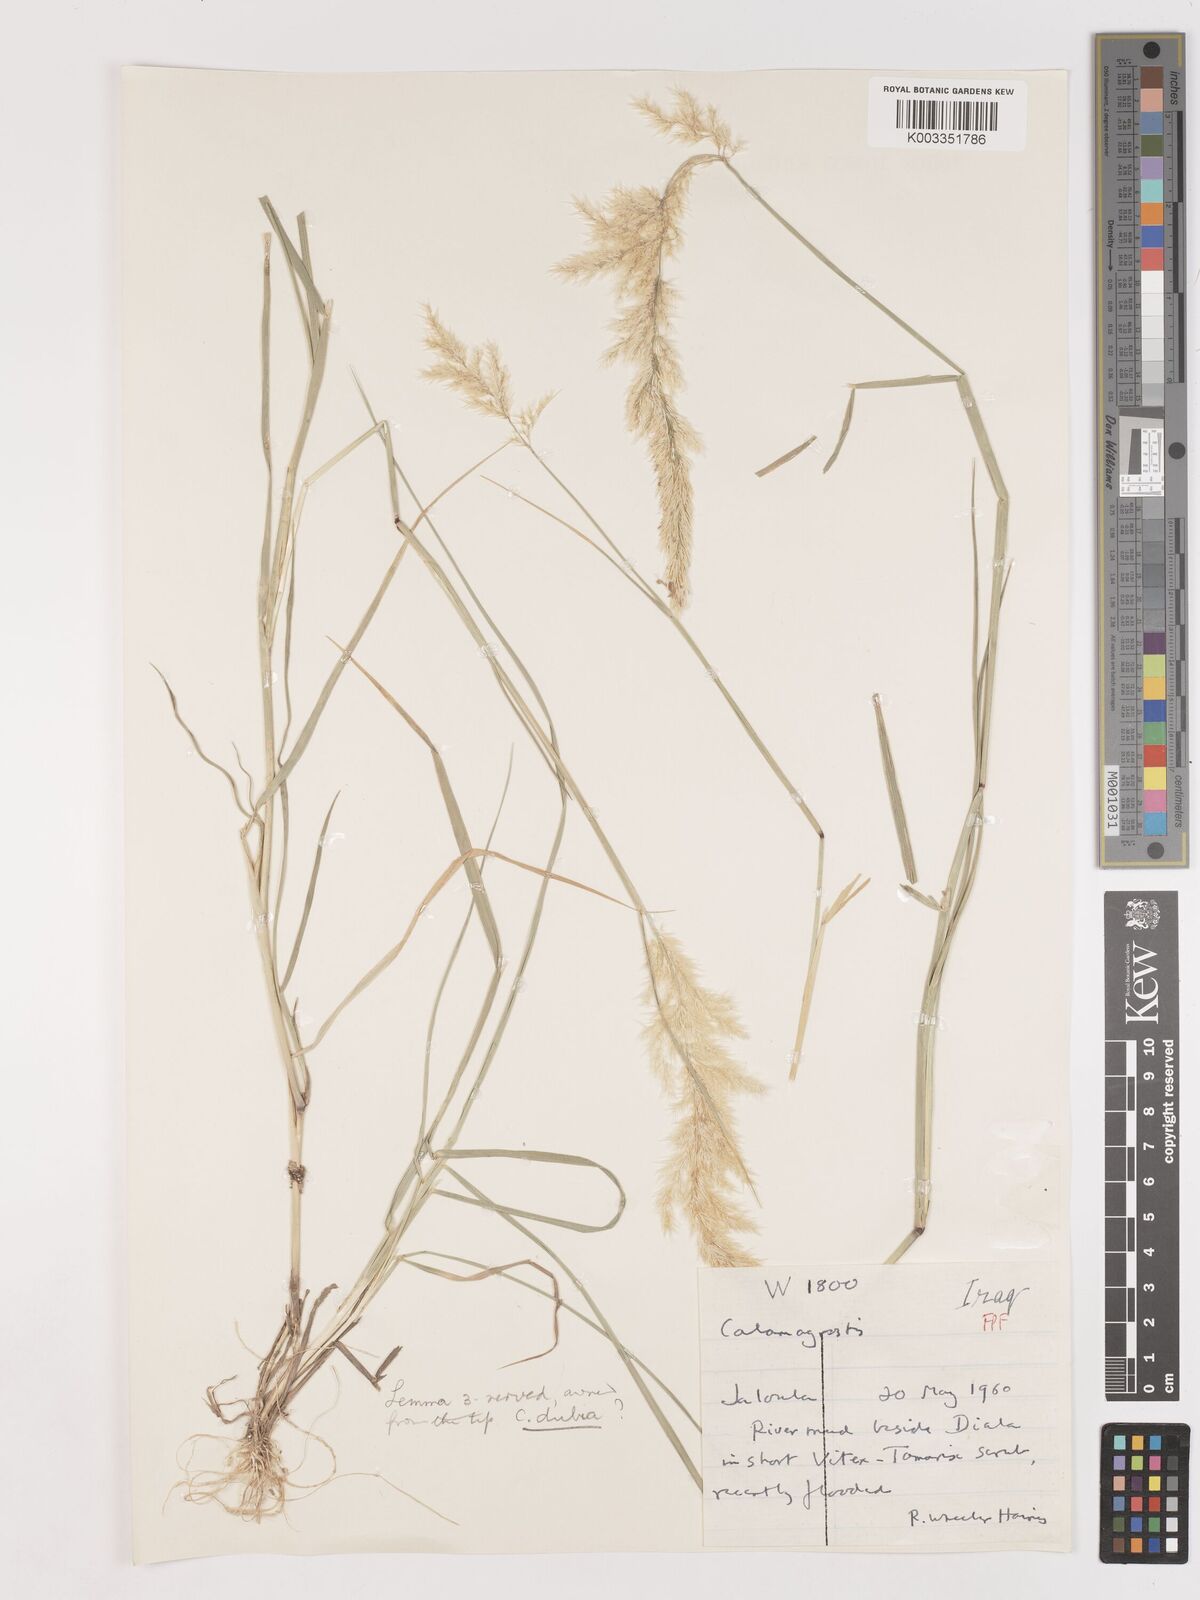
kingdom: Plantae
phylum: Tracheophyta
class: Liliopsida
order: Poales
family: Poaceae
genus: Calamagrostis
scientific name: Calamagrostis pseudophragmites
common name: Coastal small-reed
